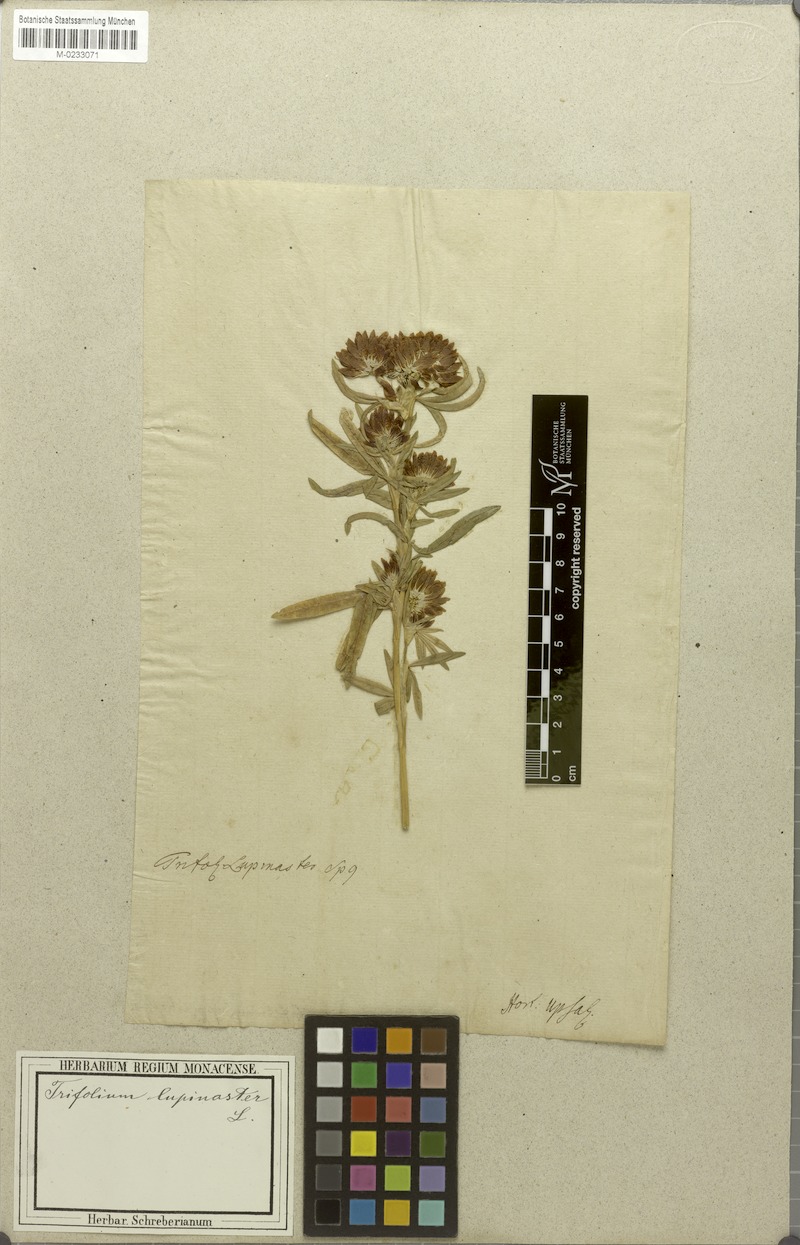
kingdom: Plantae
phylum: Tracheophyta
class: Magnoliopsida
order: Fabales
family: Fabaceae
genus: Trifolium
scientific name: Trifolium lupinaster
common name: Lupine clover
